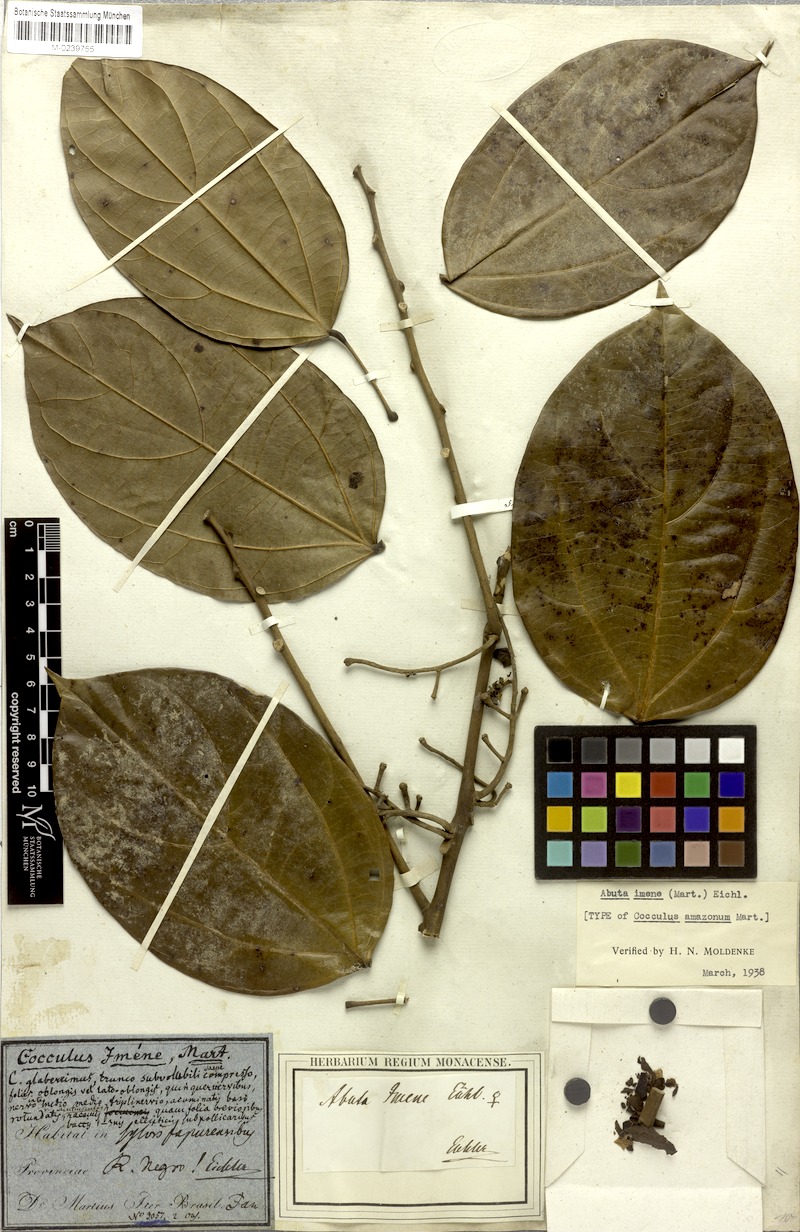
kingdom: Plantae
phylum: Tracheophyta
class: Magnoliopsida
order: Ranunculales
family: Menispermaceae
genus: Abuta
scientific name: Abuta imene
